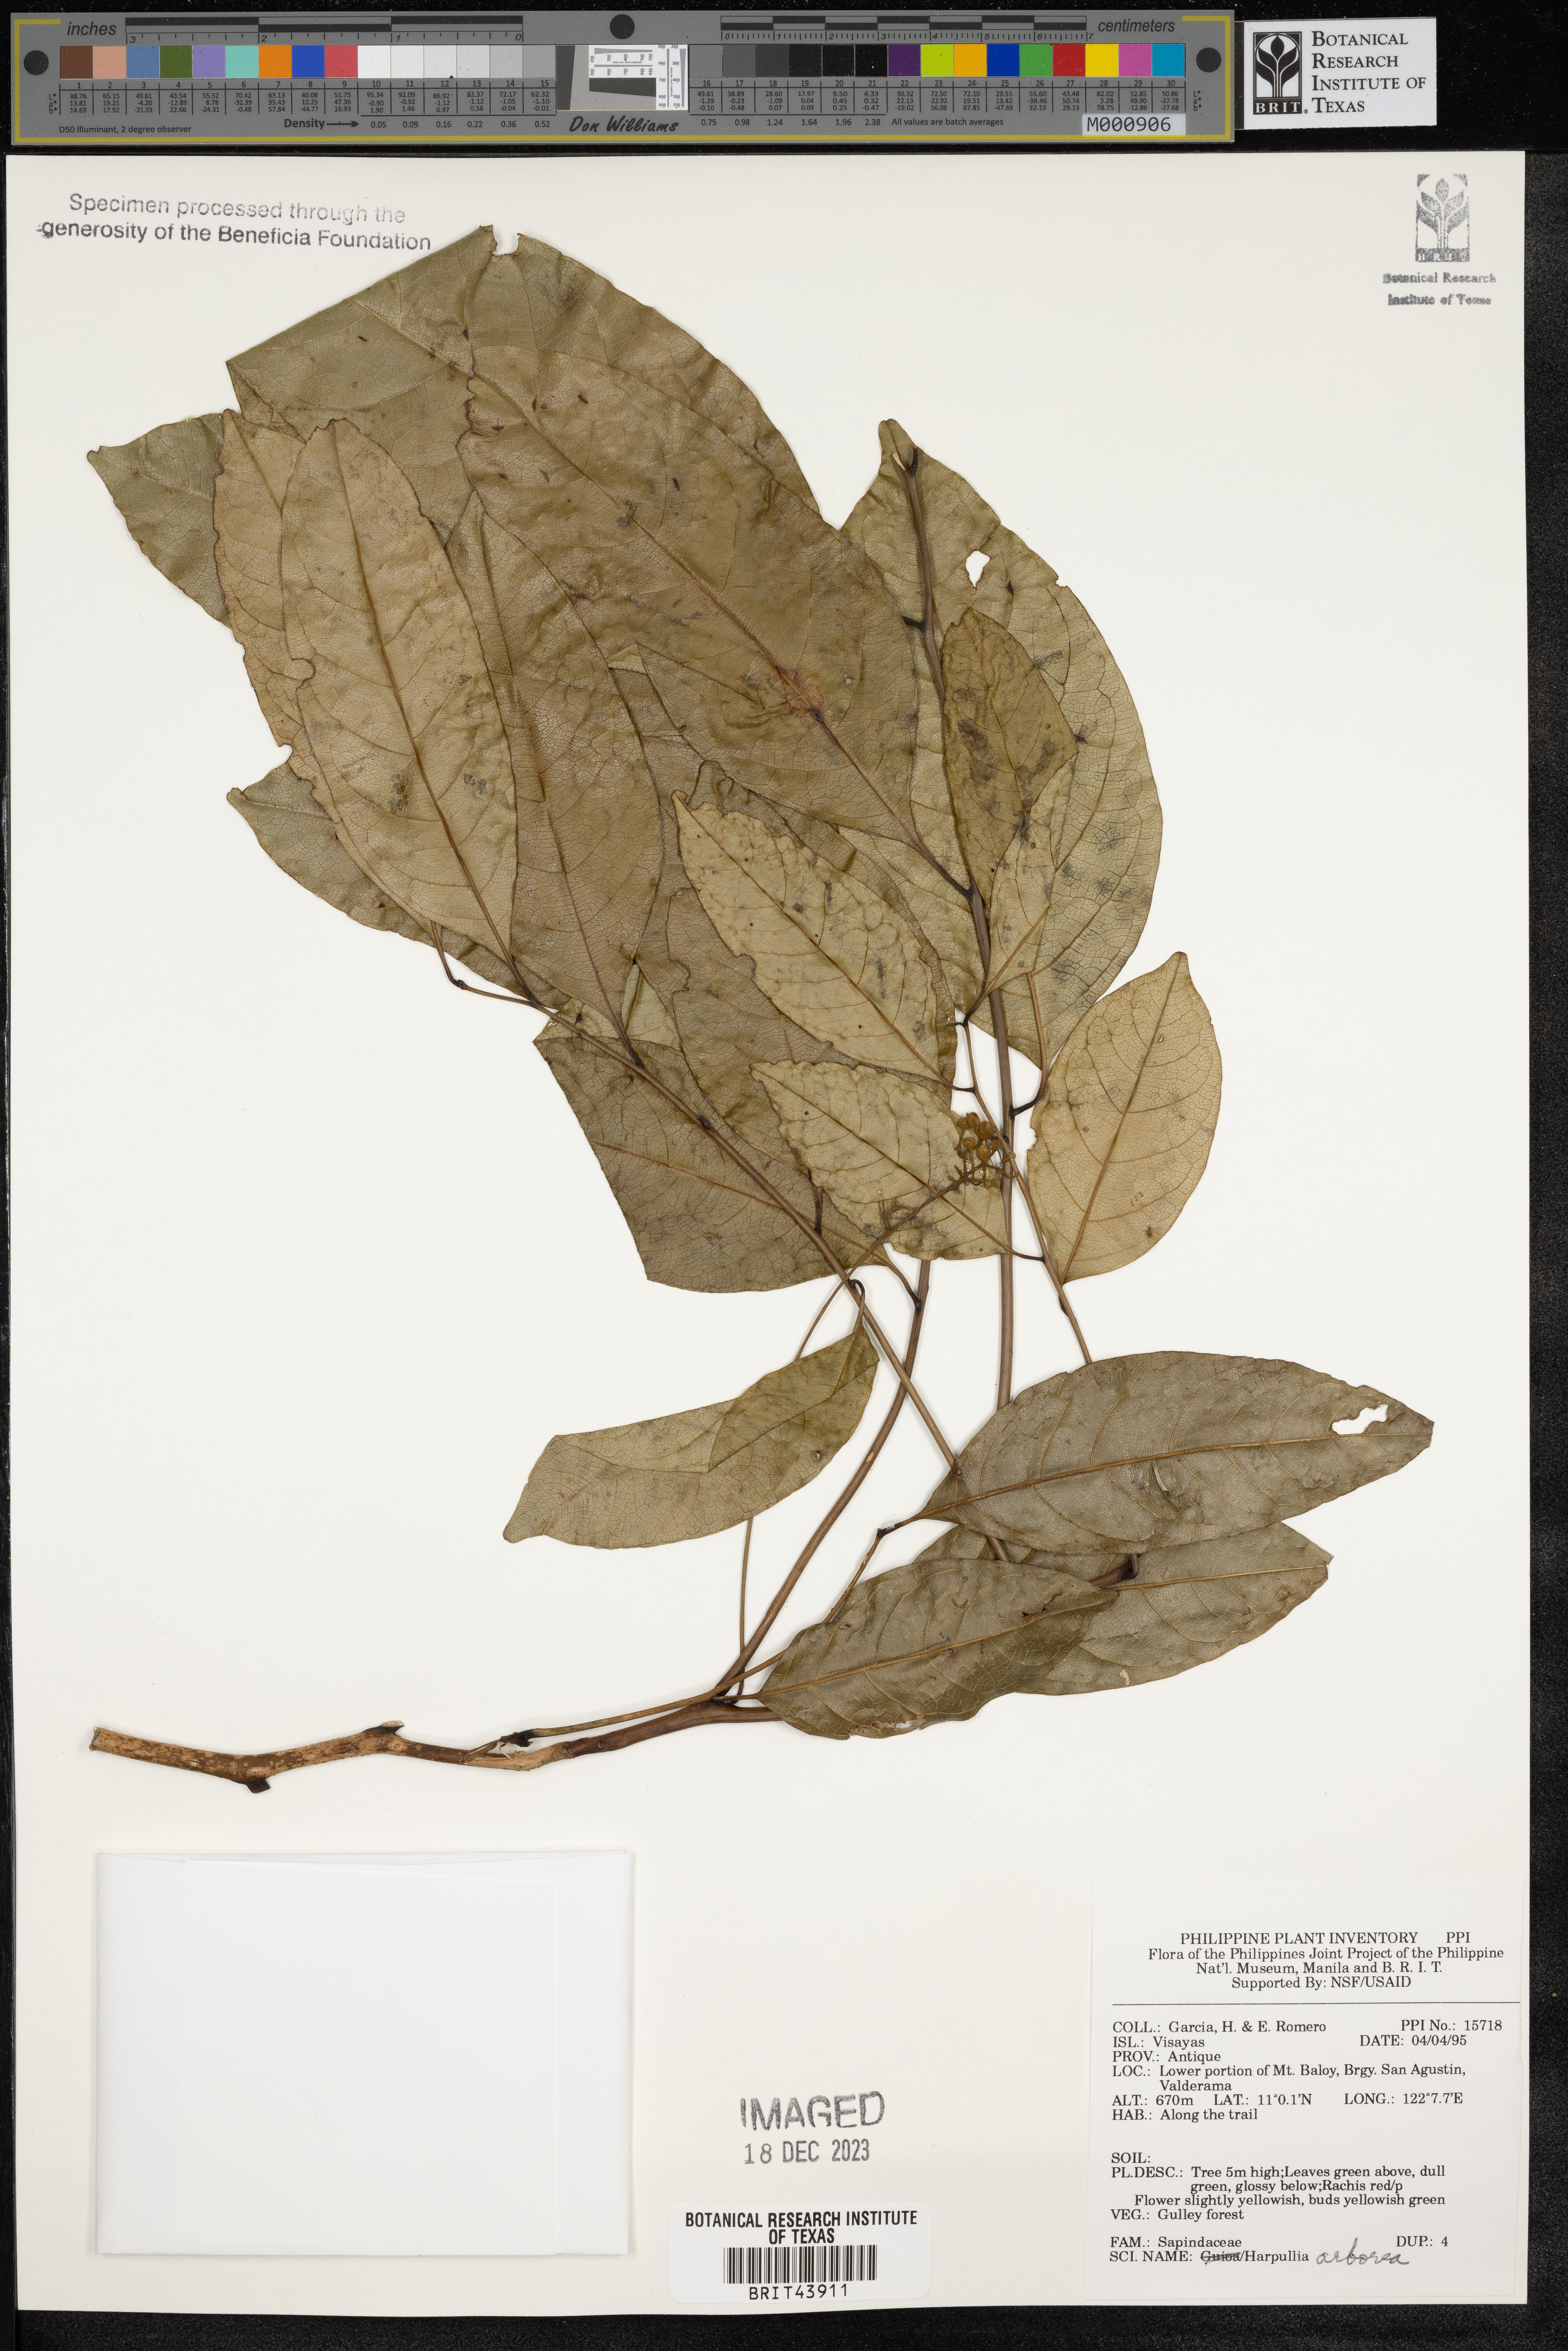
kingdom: Plantae
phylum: Tracheophyta
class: Magnoliopsida
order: Sapindales
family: Sapindaceae
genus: Harpullia
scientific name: Harpullia arborea
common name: Tulip-wood tree
